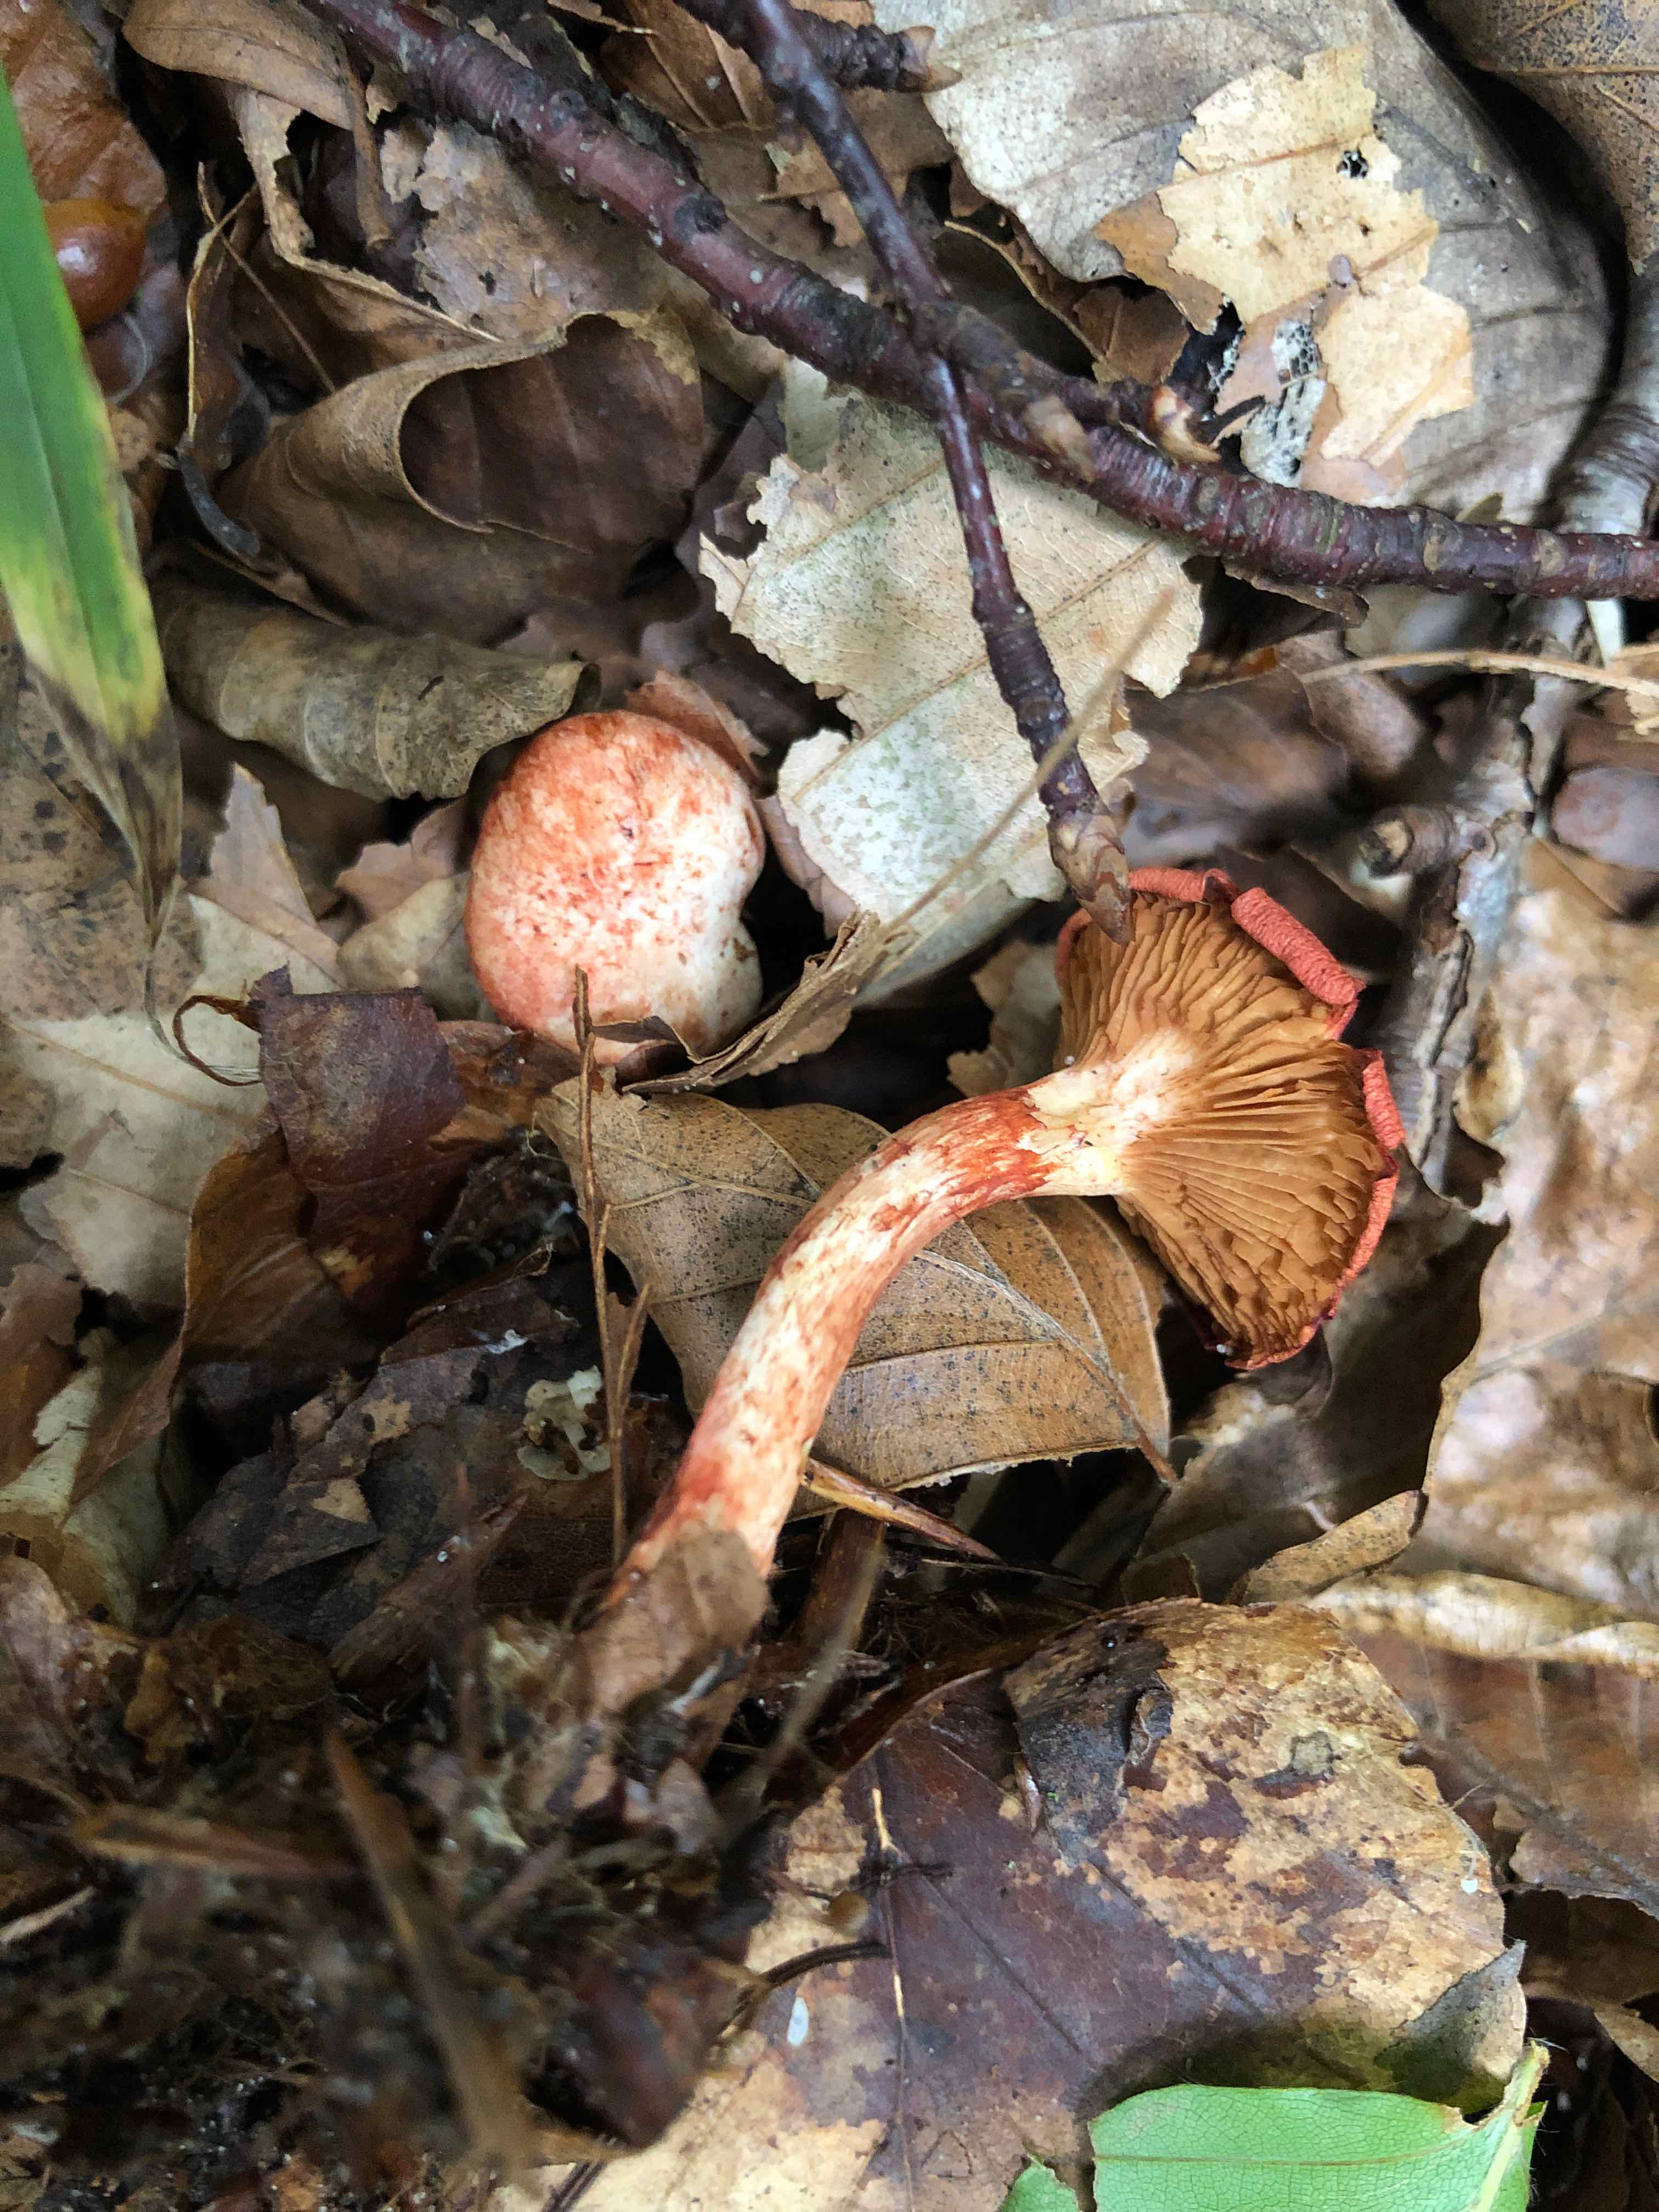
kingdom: Fungi
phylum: Basidiomycota
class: Agaricomycetes
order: Agaricales
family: Cortinariaceae
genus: Cortinarius
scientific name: Cortinarius bolaris
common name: cinnoberskællet slørhat
